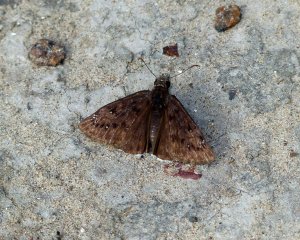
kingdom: Animalia
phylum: Arthropoda
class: Insecta
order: Lepidoptera
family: Hesperiidae
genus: Erynnis
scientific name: Erynnis funeralis
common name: Funereal Duskywing
